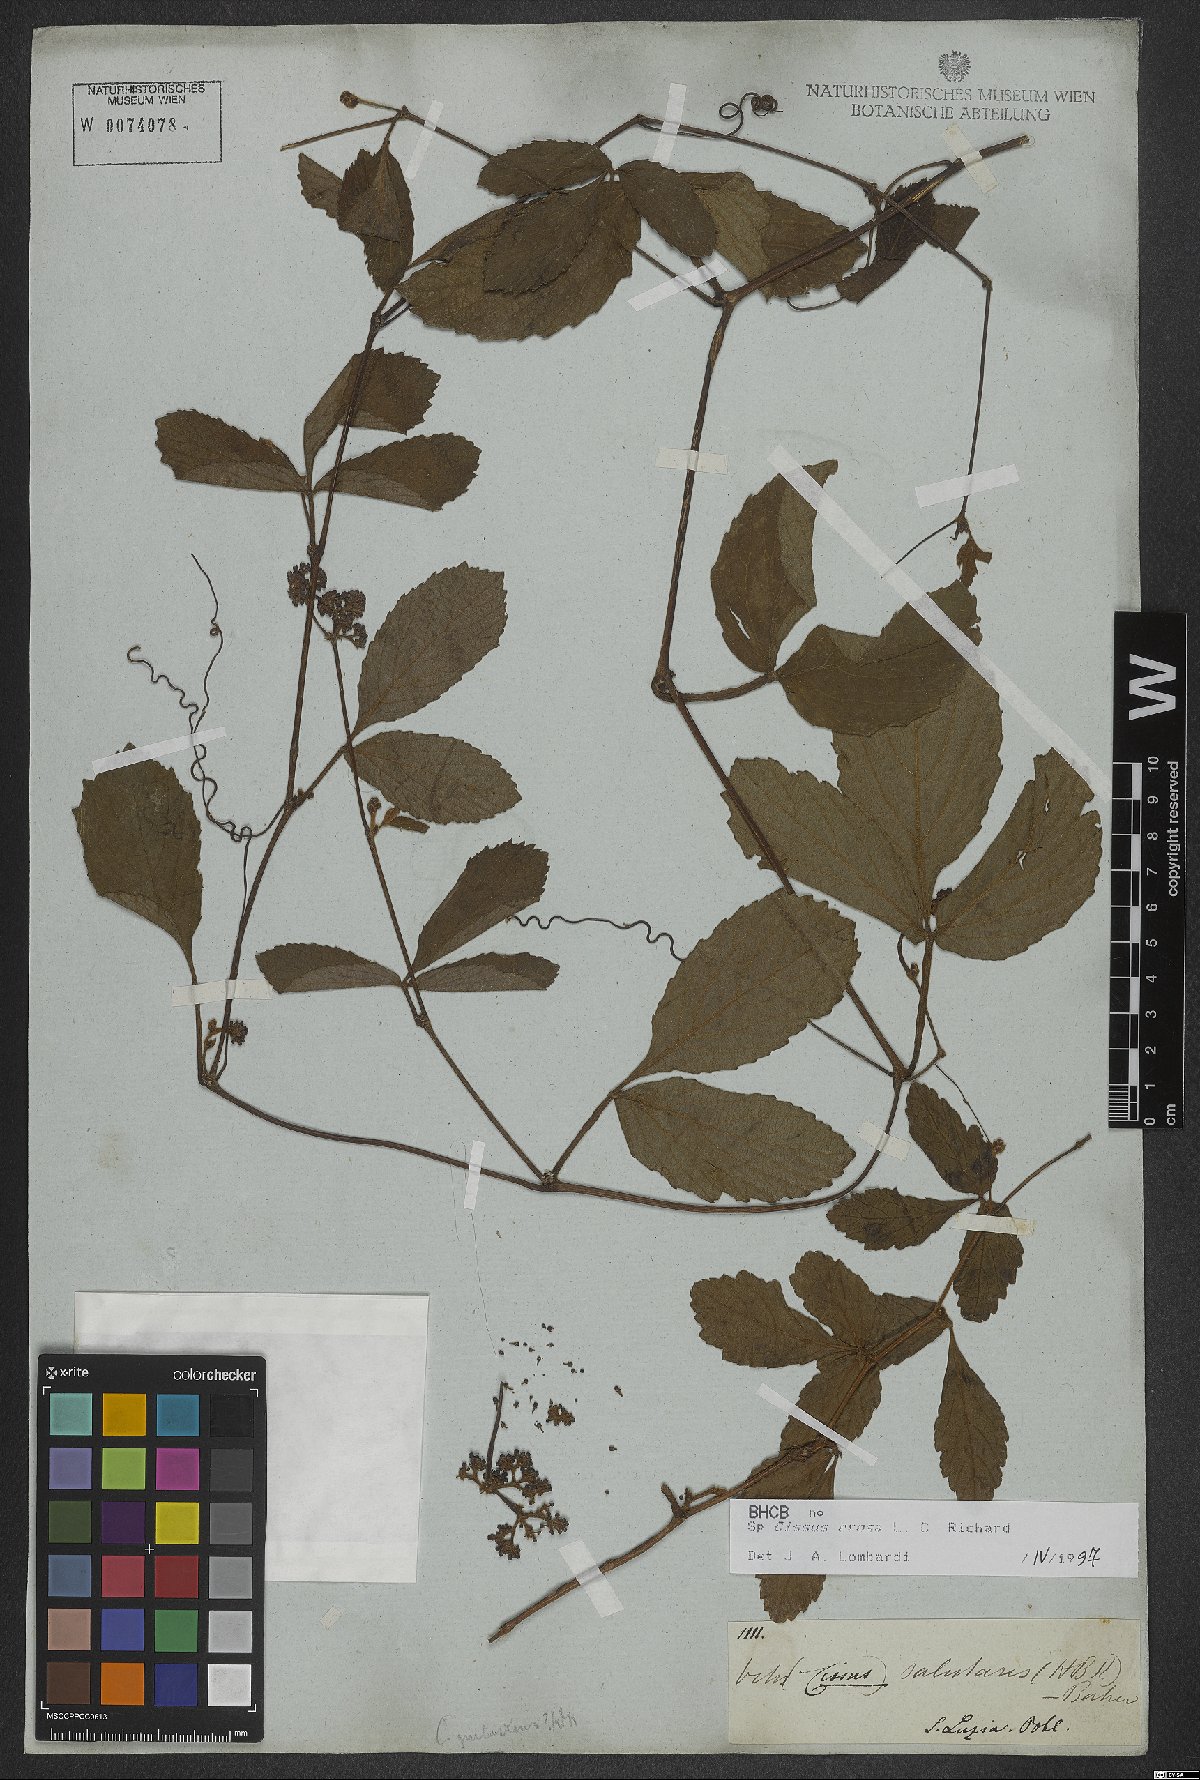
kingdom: Plantae
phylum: Tracheophyta
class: Magnoliopsida
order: Vitales
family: Vitaceae
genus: Cissus
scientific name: Cissus erosa
